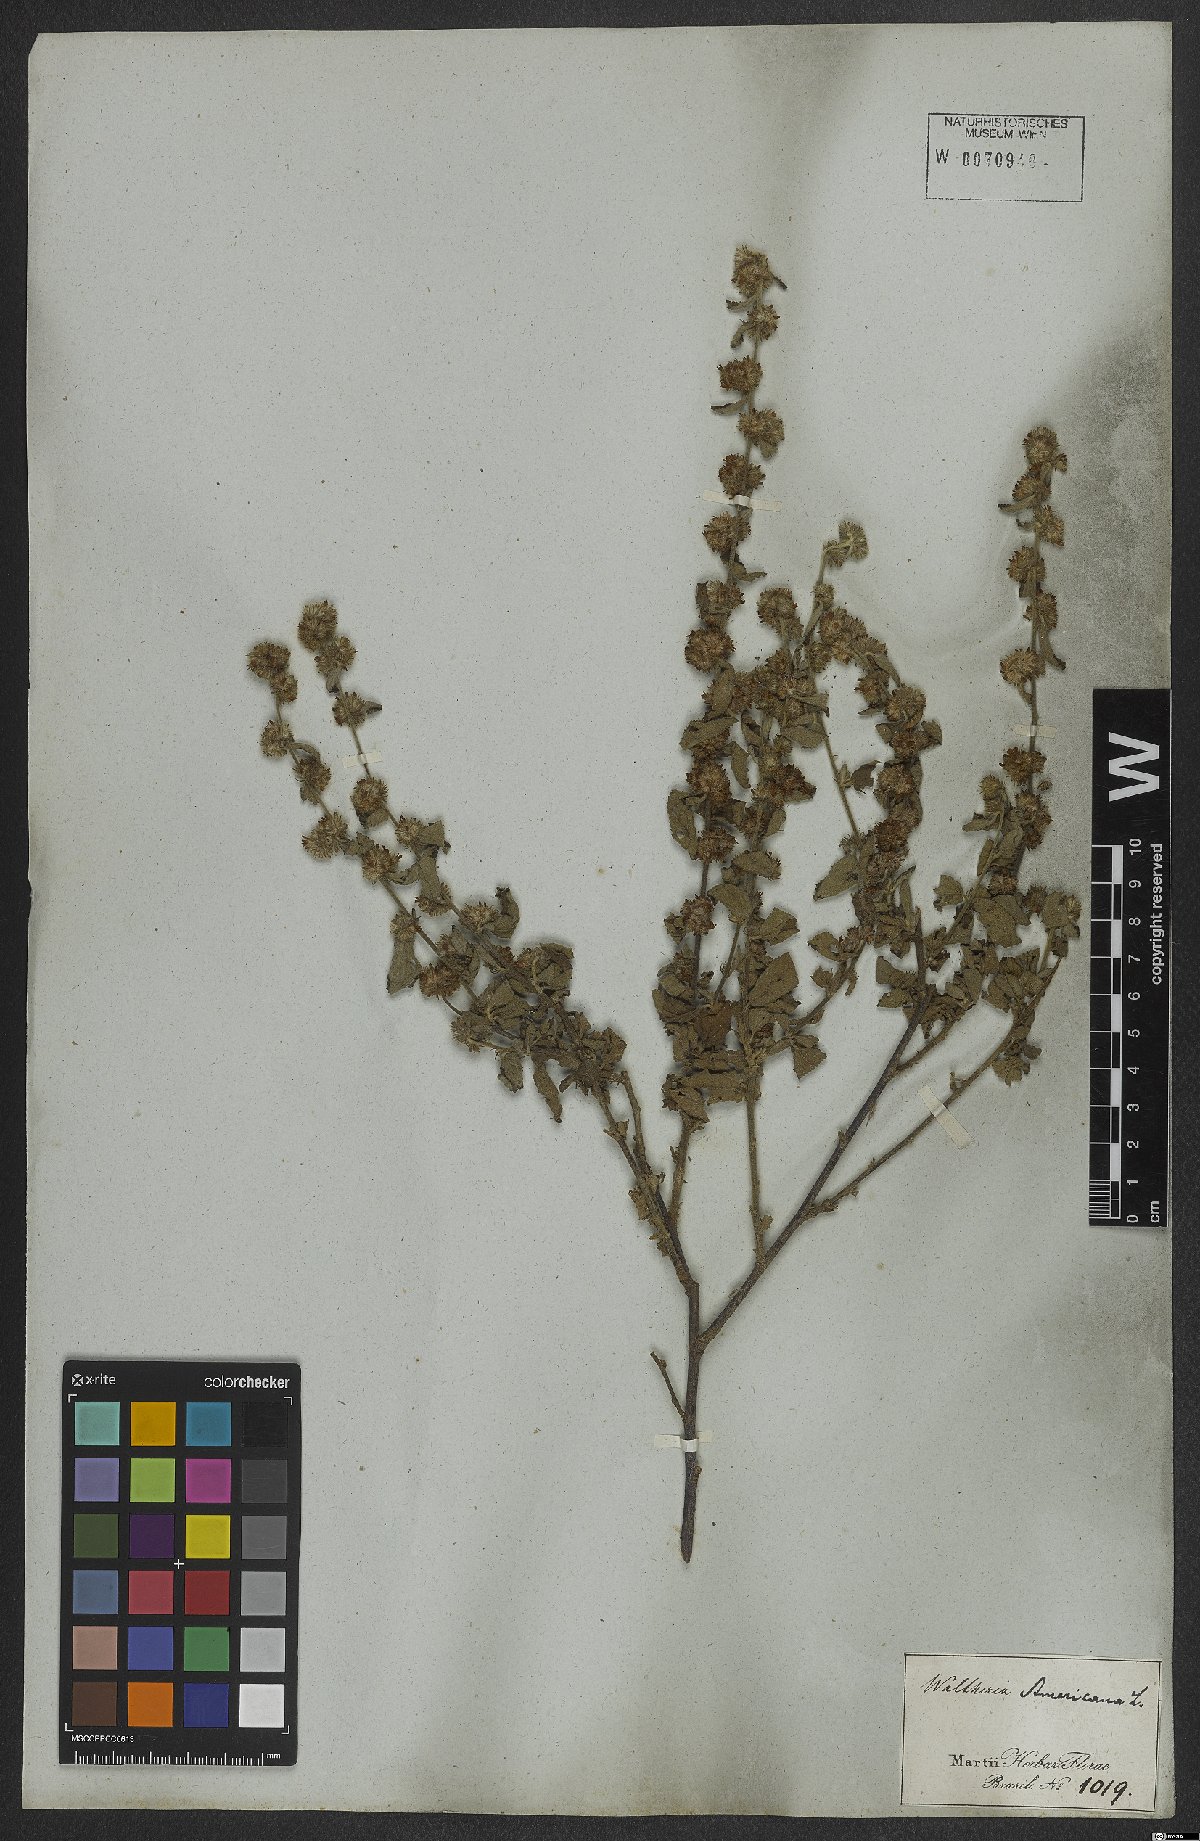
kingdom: Plantae
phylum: Tracheophyta
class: Magnoliopsida
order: Malvales
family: Malvaceae
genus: Waltheria
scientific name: Waltheria indica
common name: Leather-coat
